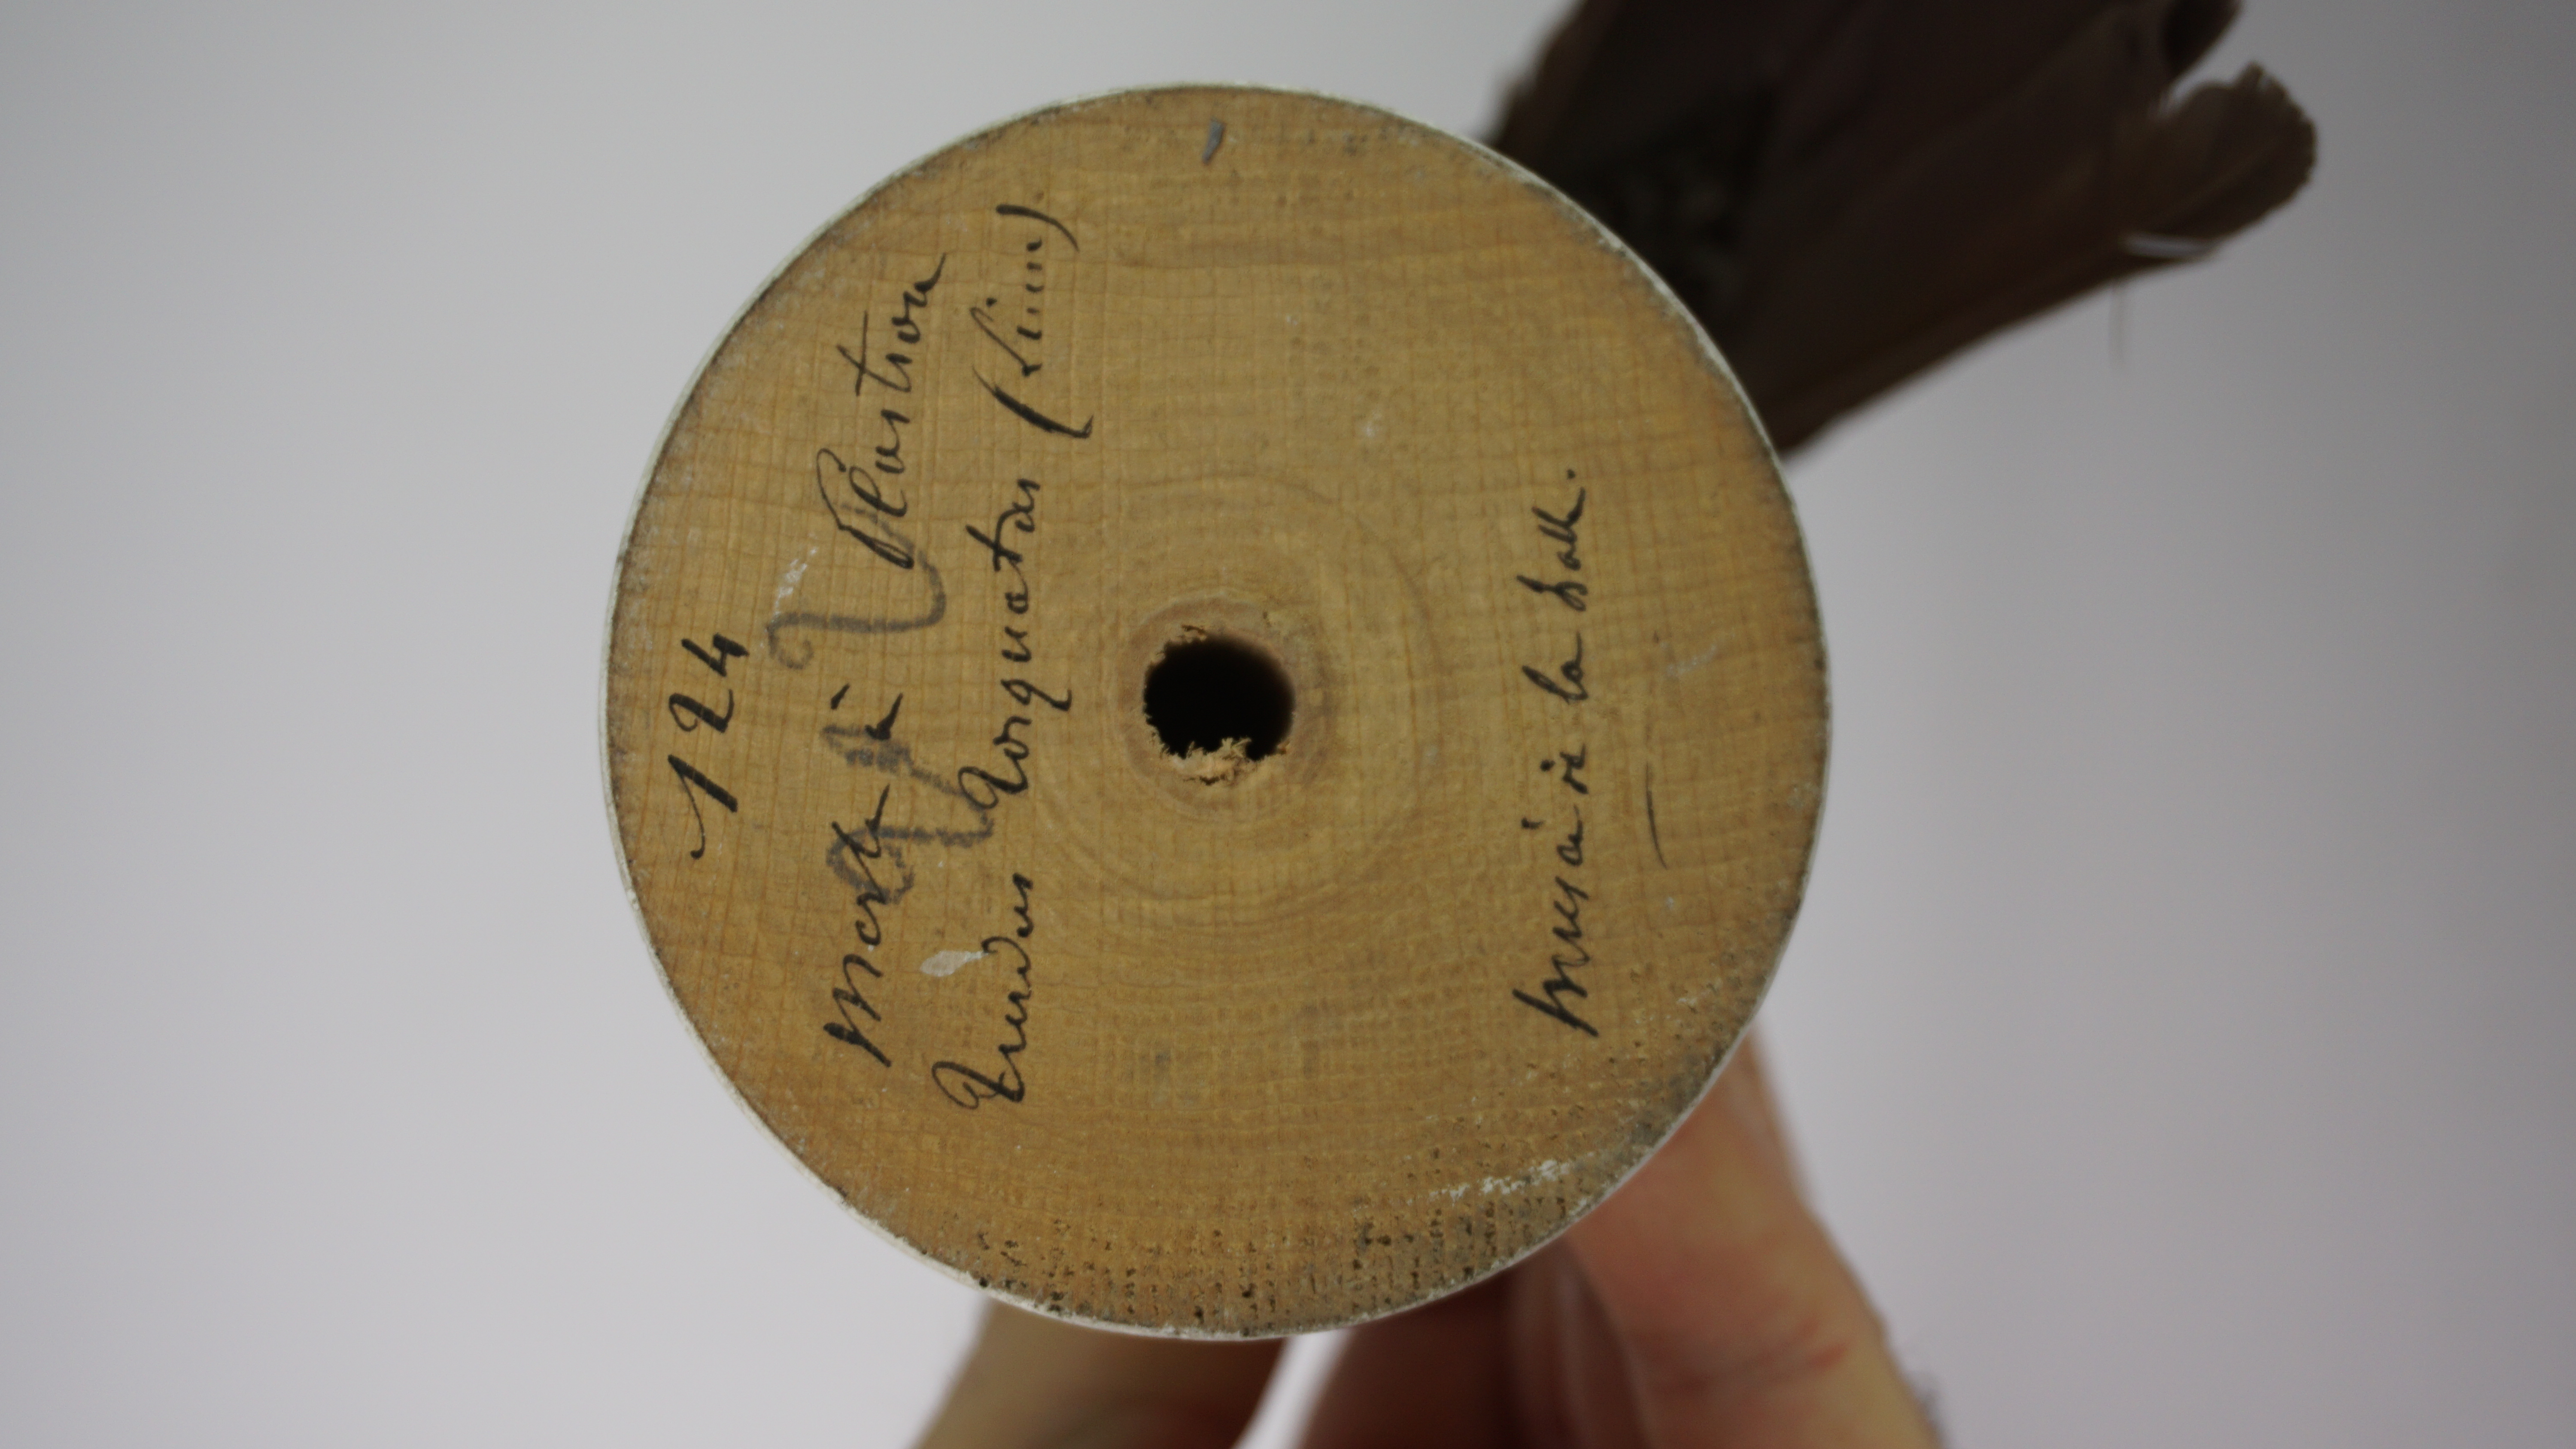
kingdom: Animalia
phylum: Chordata
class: Aves
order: Passeriformes
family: Turdidae
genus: Turdus
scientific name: Turdus torquatus
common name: Ring ouzel
